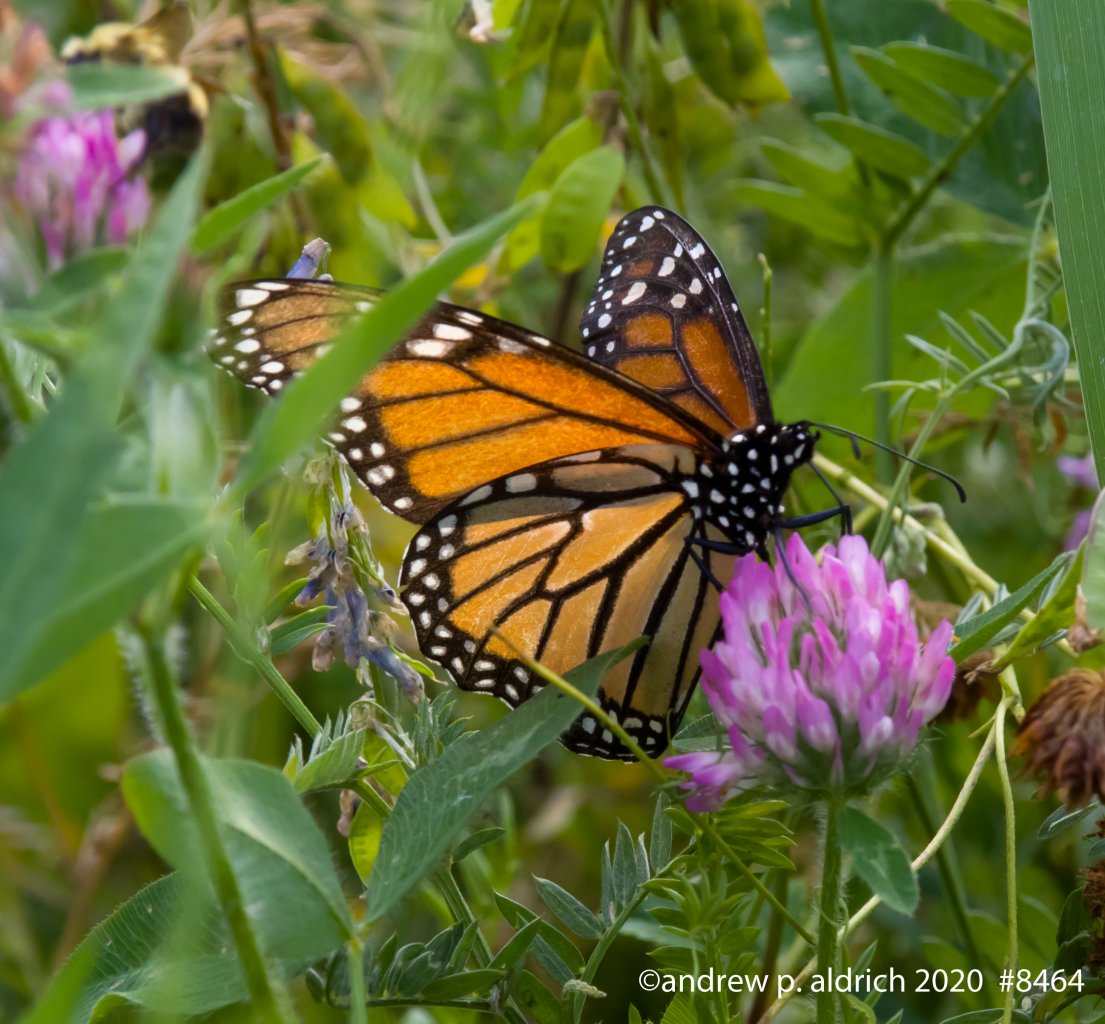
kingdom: Animalia
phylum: Arthropoda
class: Insecta
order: Lepidoptera
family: Nymphalidae
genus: Danaus
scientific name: Danaus plexippus
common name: Monarch
